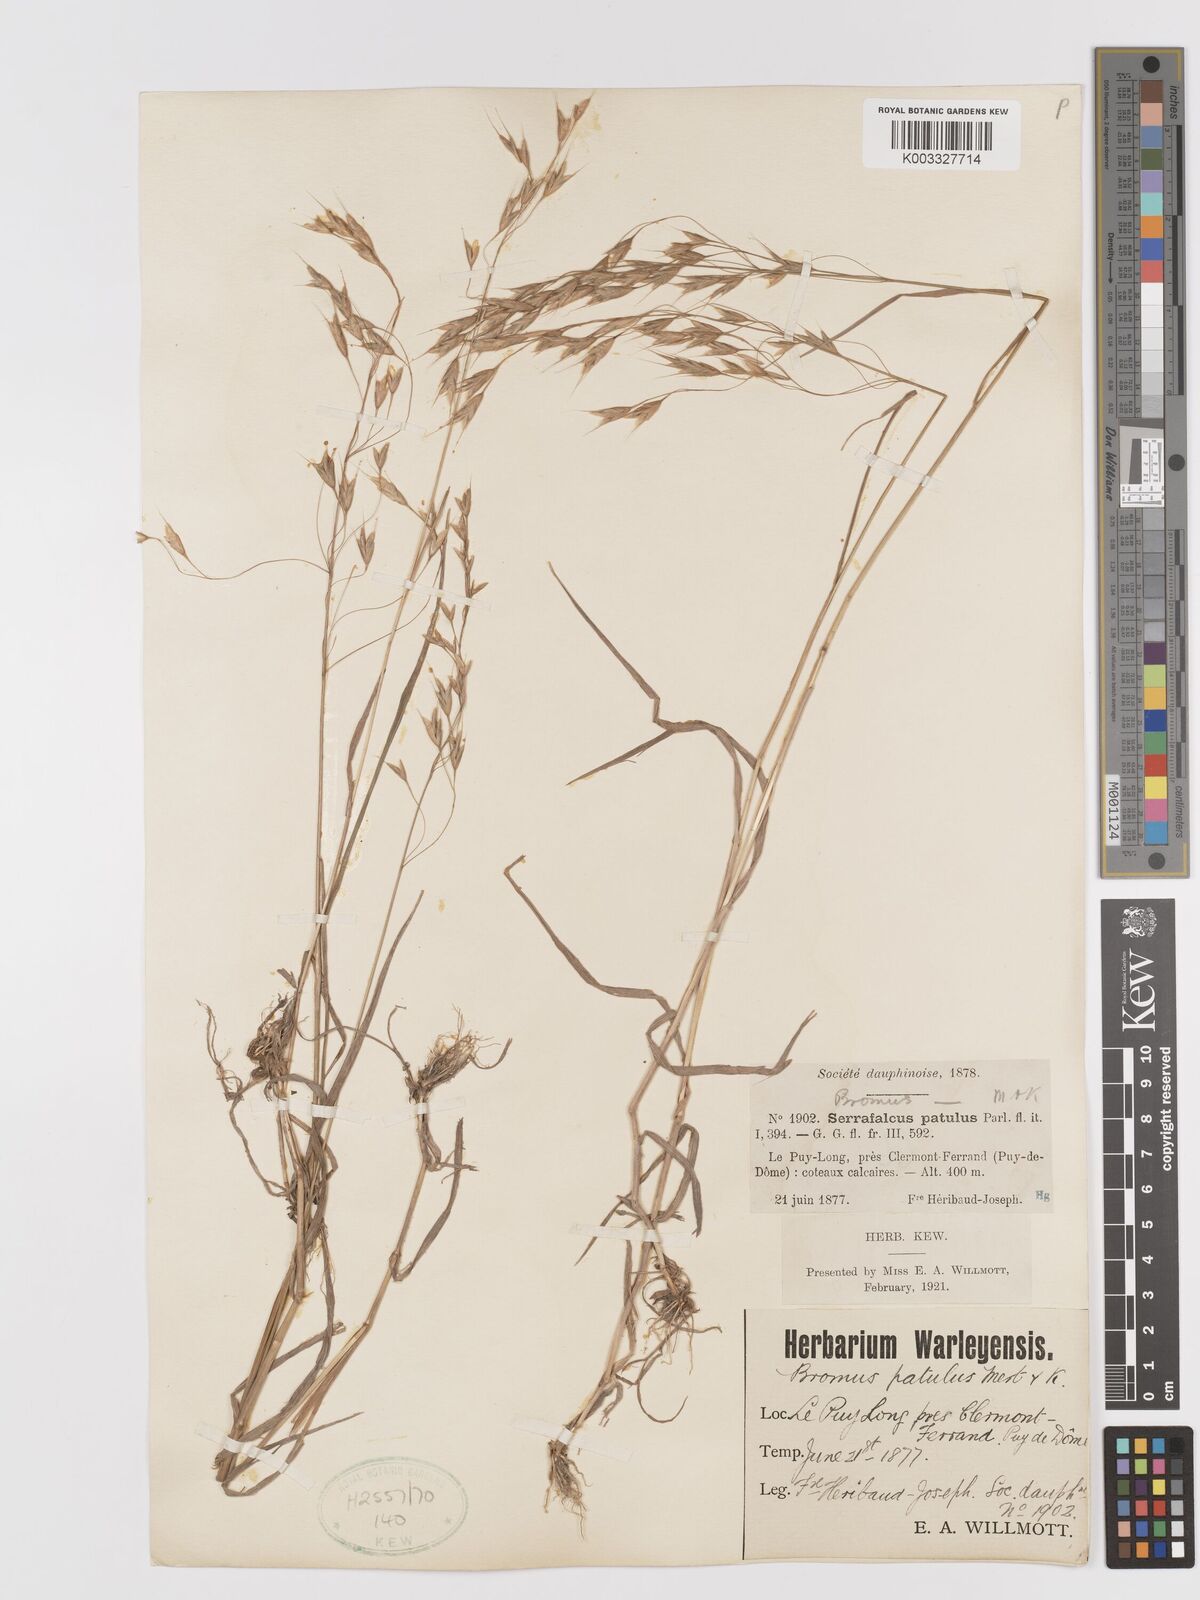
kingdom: Plantae
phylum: Tracheophyta
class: Liliopsida
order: Poales
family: Poaceae
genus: Bromus
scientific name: Bromus japonicus
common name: Japanese brome
